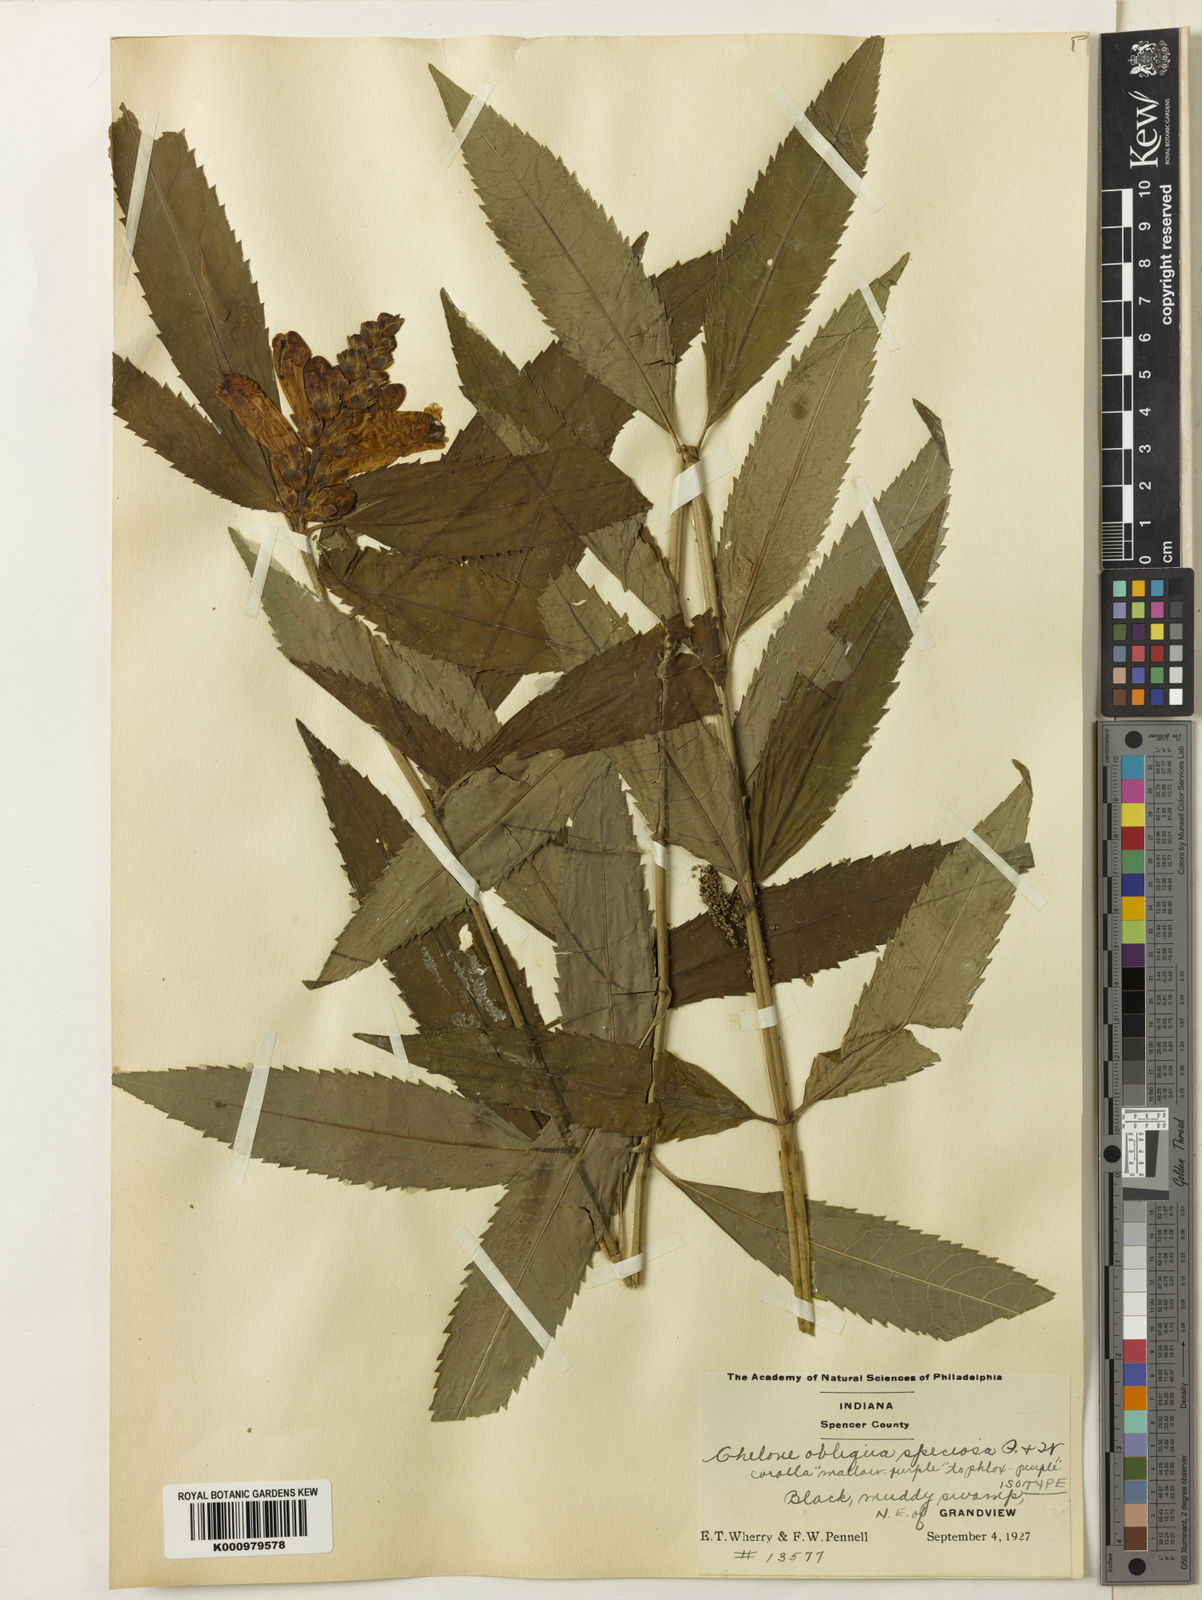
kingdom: Plantae
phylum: Tracheophyta
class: Magnoliopsida
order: Lamiales
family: Plantaginaceae
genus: Chelone
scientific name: Chelone obliqua
